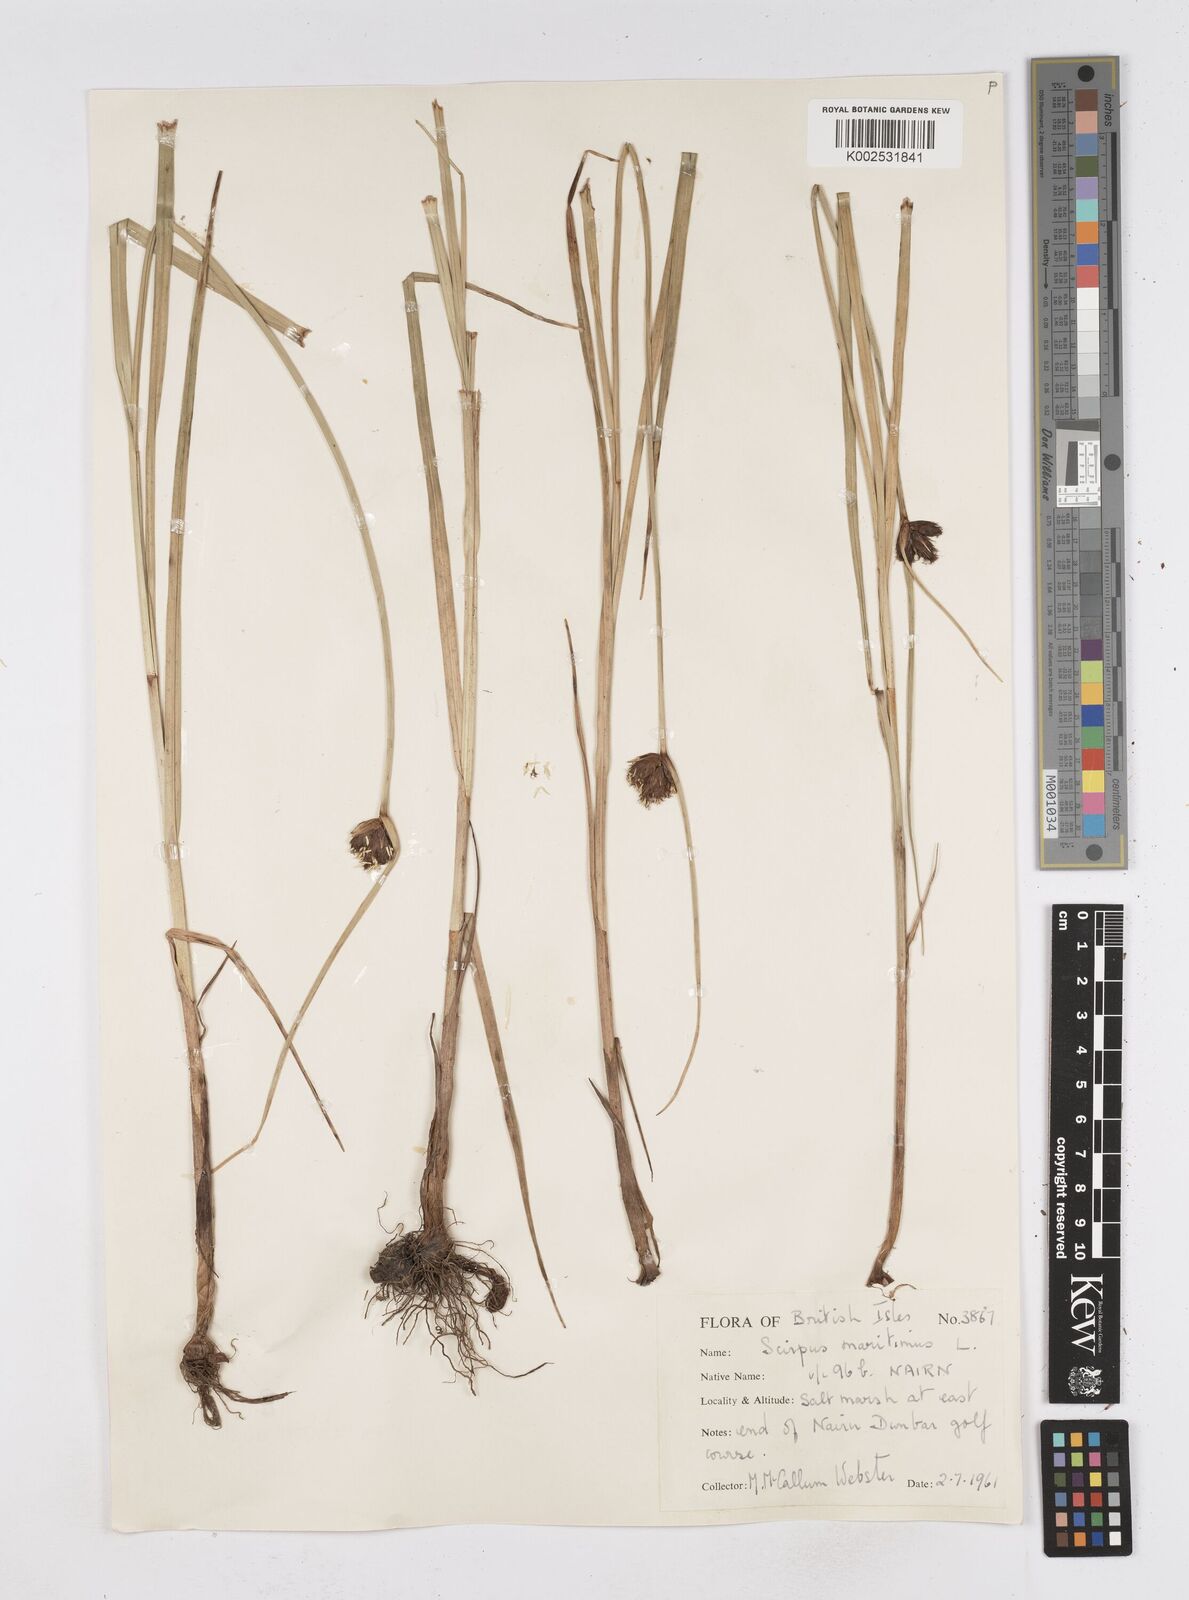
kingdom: Plantae
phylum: Tracheophyta
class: Liliopsida
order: Poales
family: Cyperaceae
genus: Bolboschoenus
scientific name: Bolboschoenus maritimus
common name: Sea club-rush
